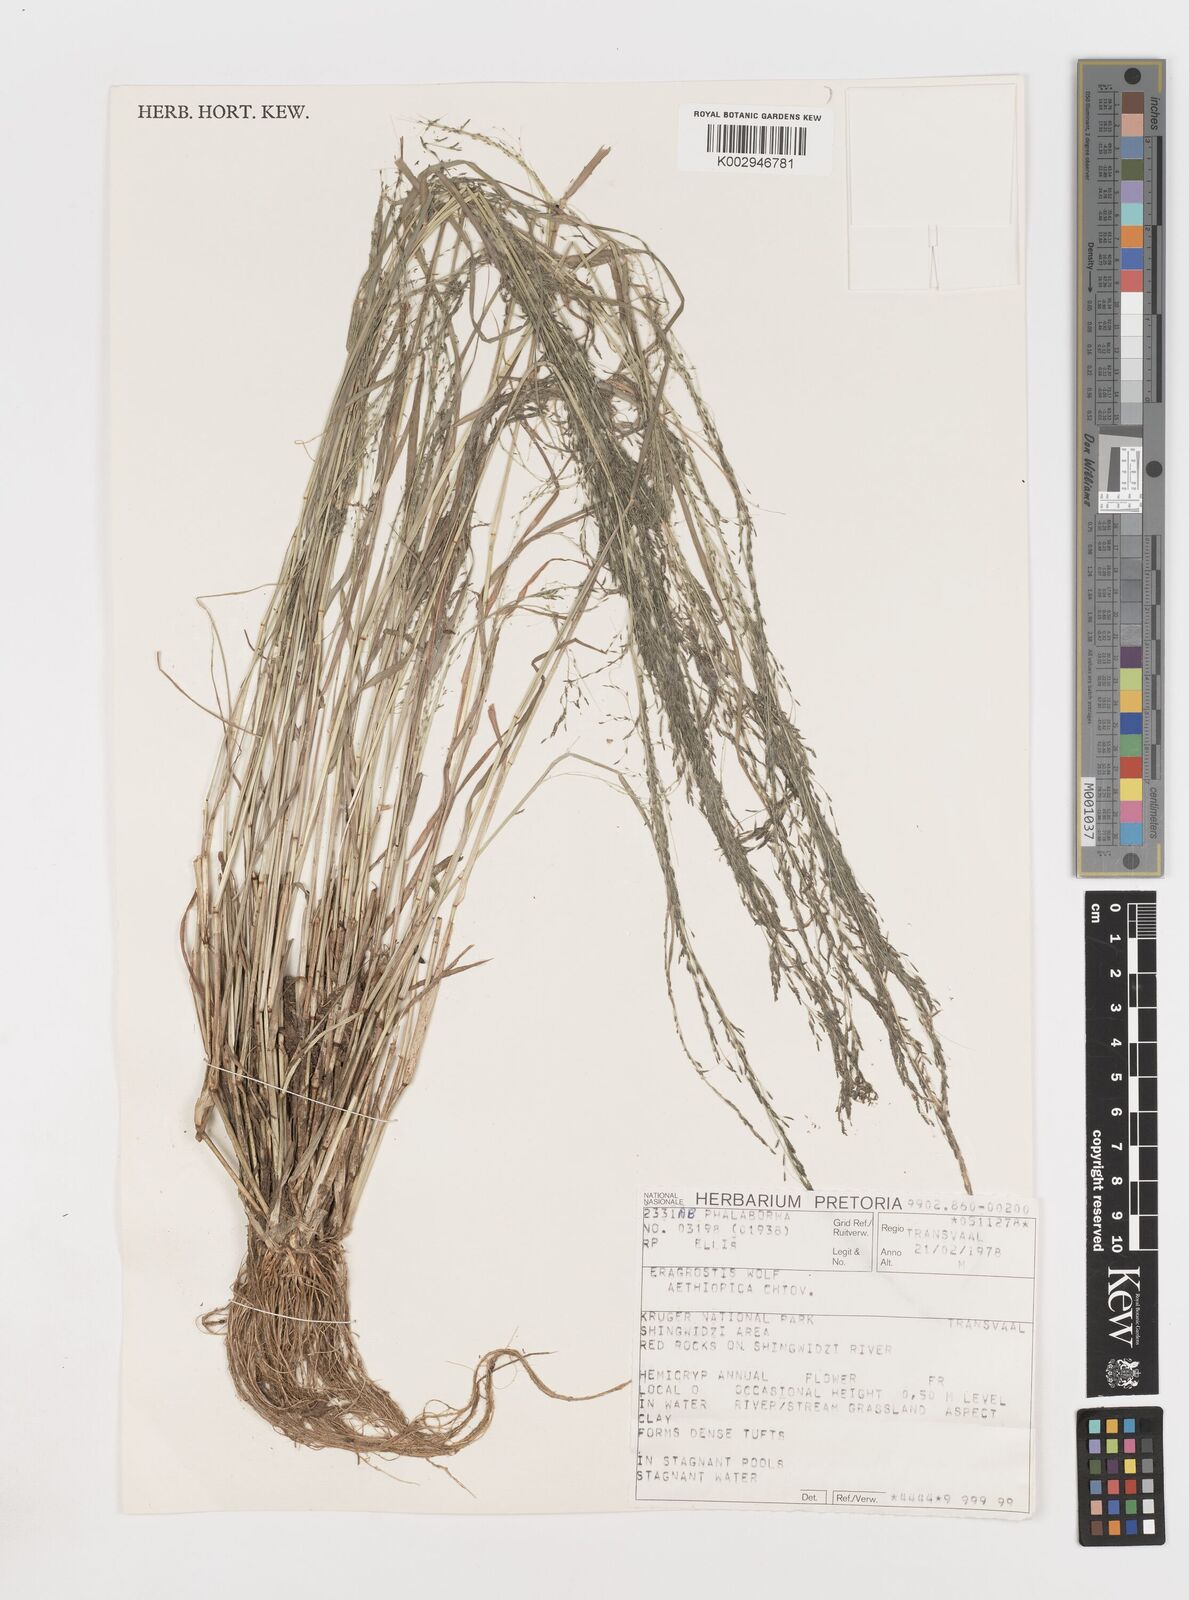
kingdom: Plantae
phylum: Tracheophyta
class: Liliopsida
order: Poales
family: Poaceae
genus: Eragrostis
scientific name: Eragrostis aethiopica
